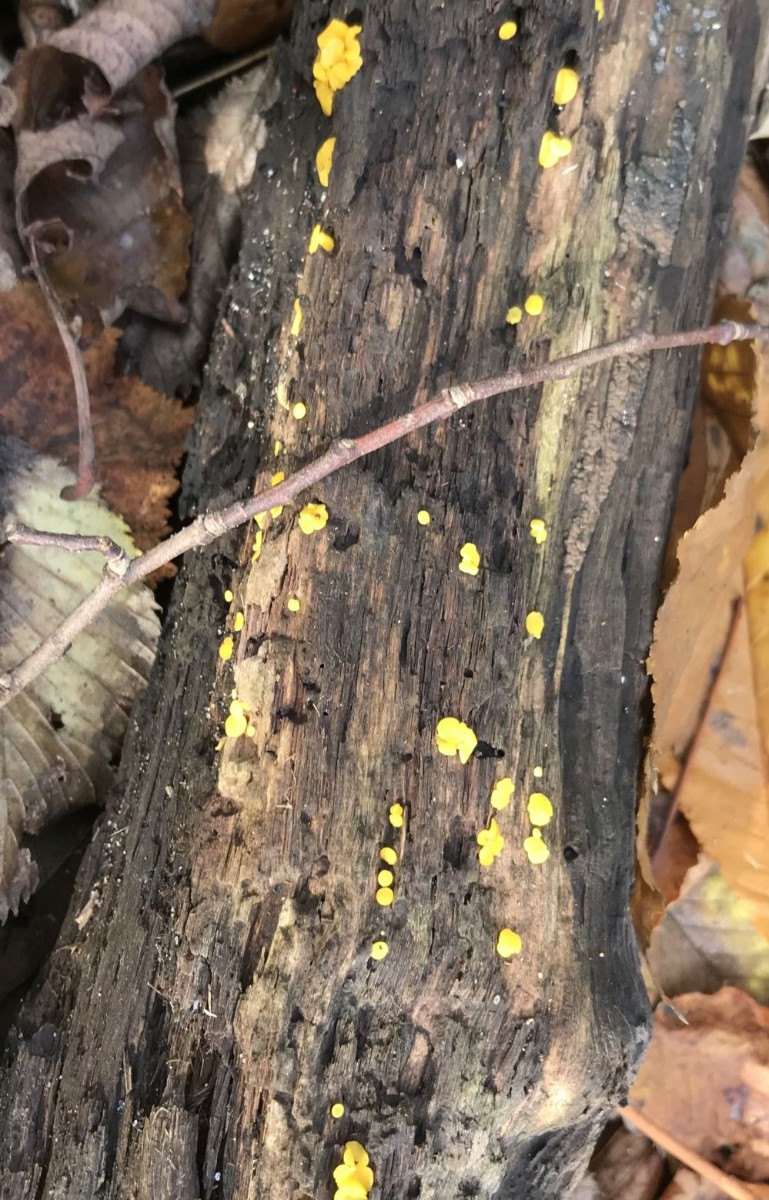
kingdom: Fungi
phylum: Ascomycota
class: Leotiomycetes
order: Helotiales
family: Pezizellaceae
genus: Calycina
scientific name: Calycina citrina
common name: almindelig gulskive
